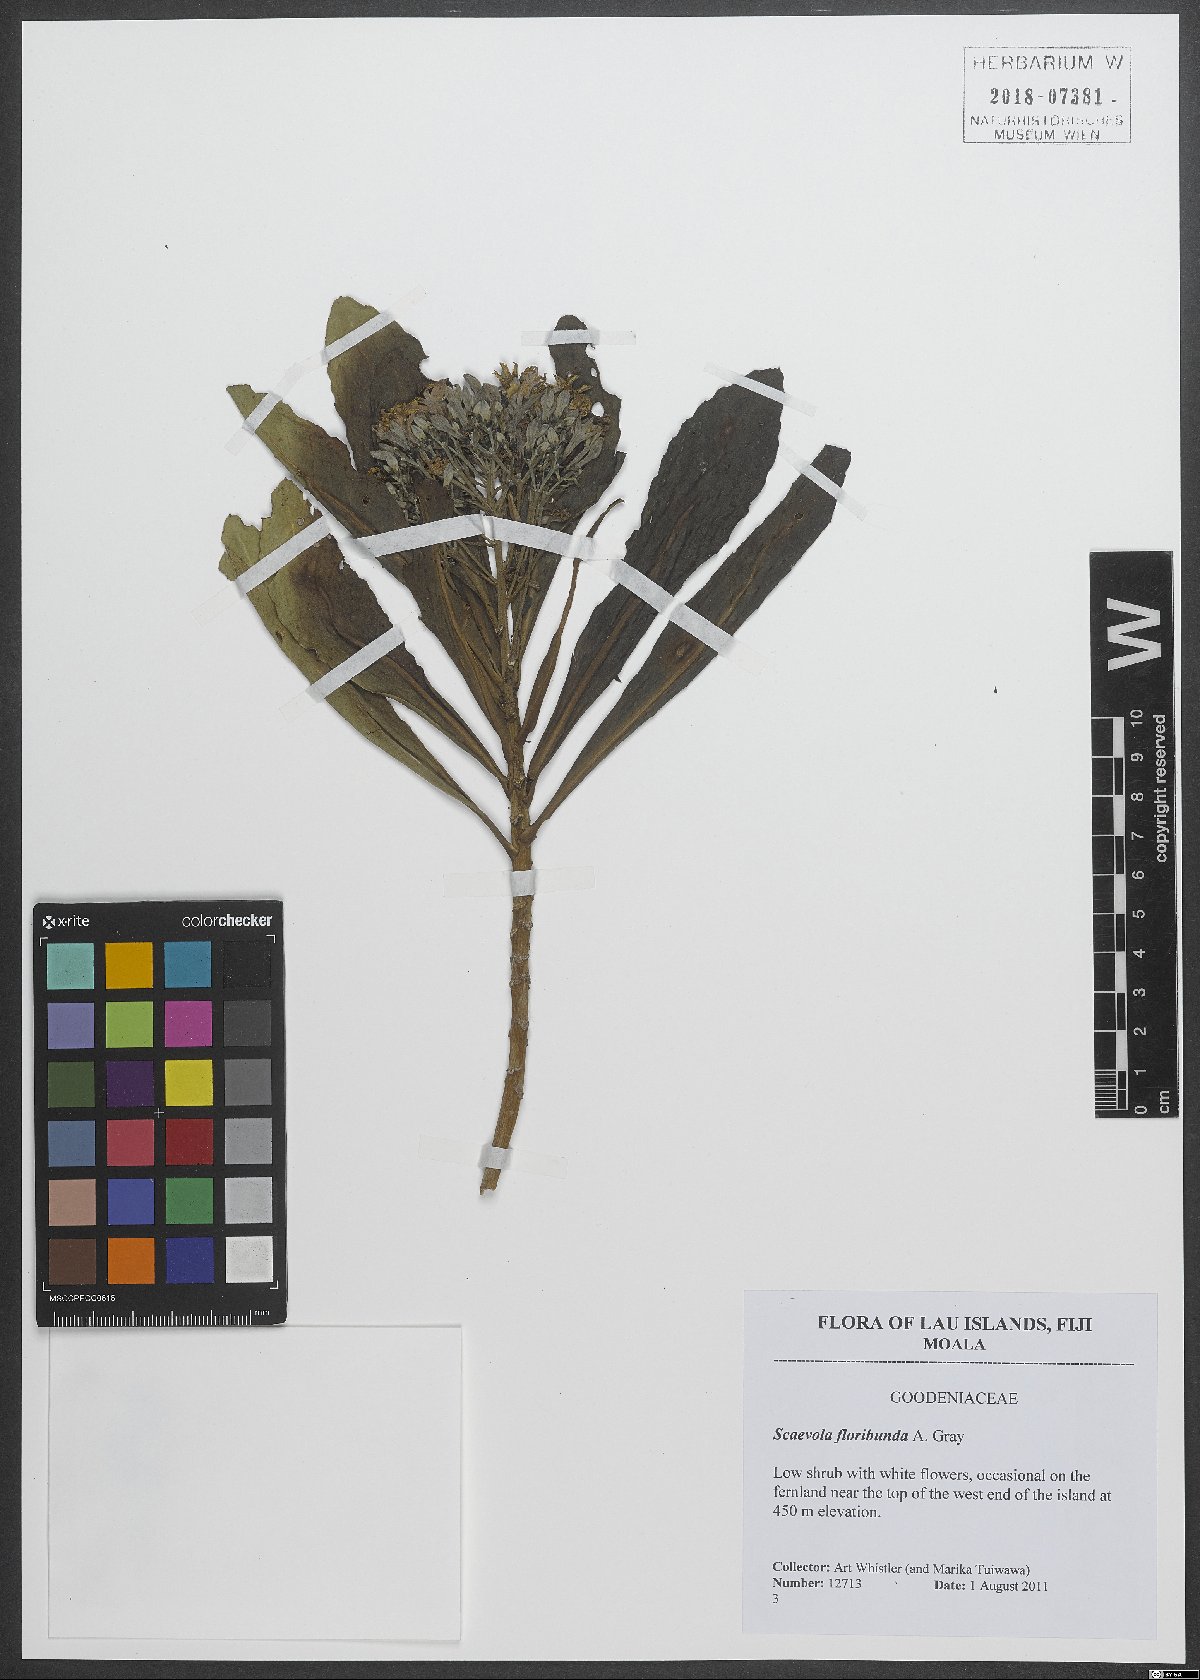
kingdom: Plantae
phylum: Tracheophyta
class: Magnoliopsida
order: Asterales
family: Goodeniaceae
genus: Scaevola
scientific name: Scaevola floribunda
